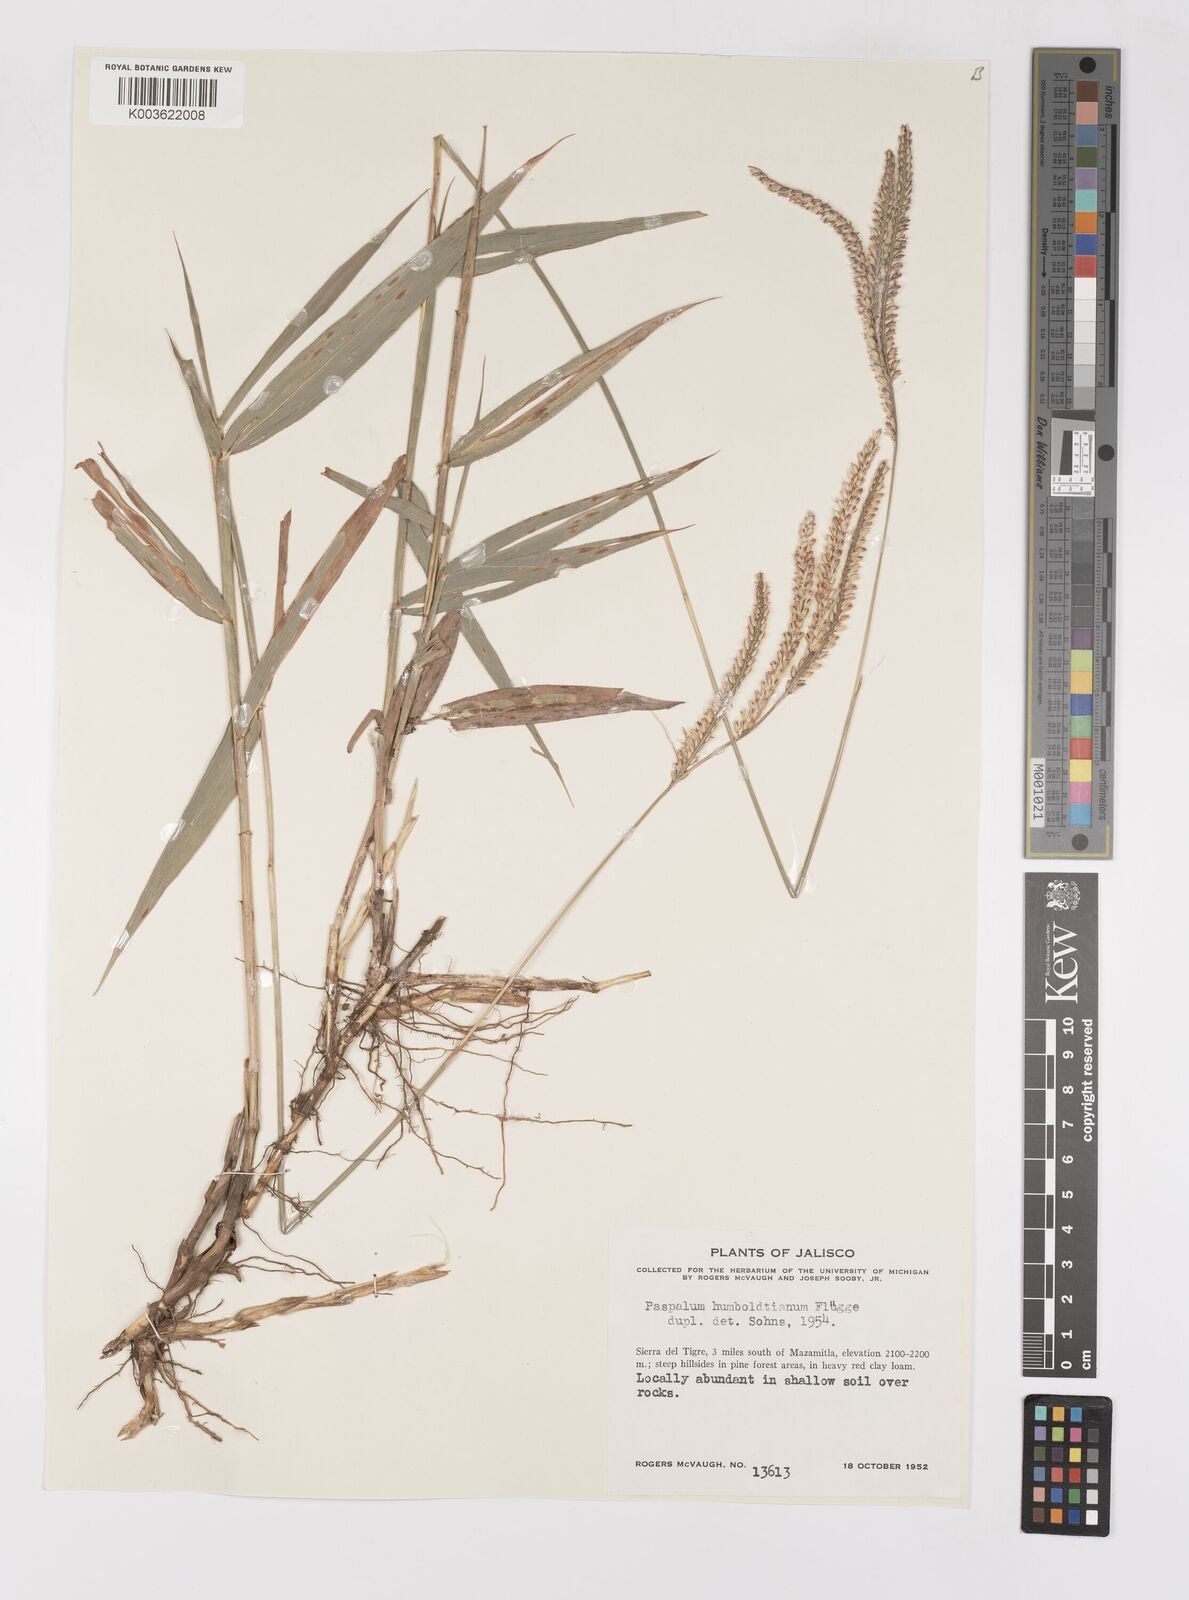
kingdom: Plantae
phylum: Tracheophyta
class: Liliopsida
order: Poales
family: Poaceae
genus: Paspalum
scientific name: Paspalum humboldtianum
